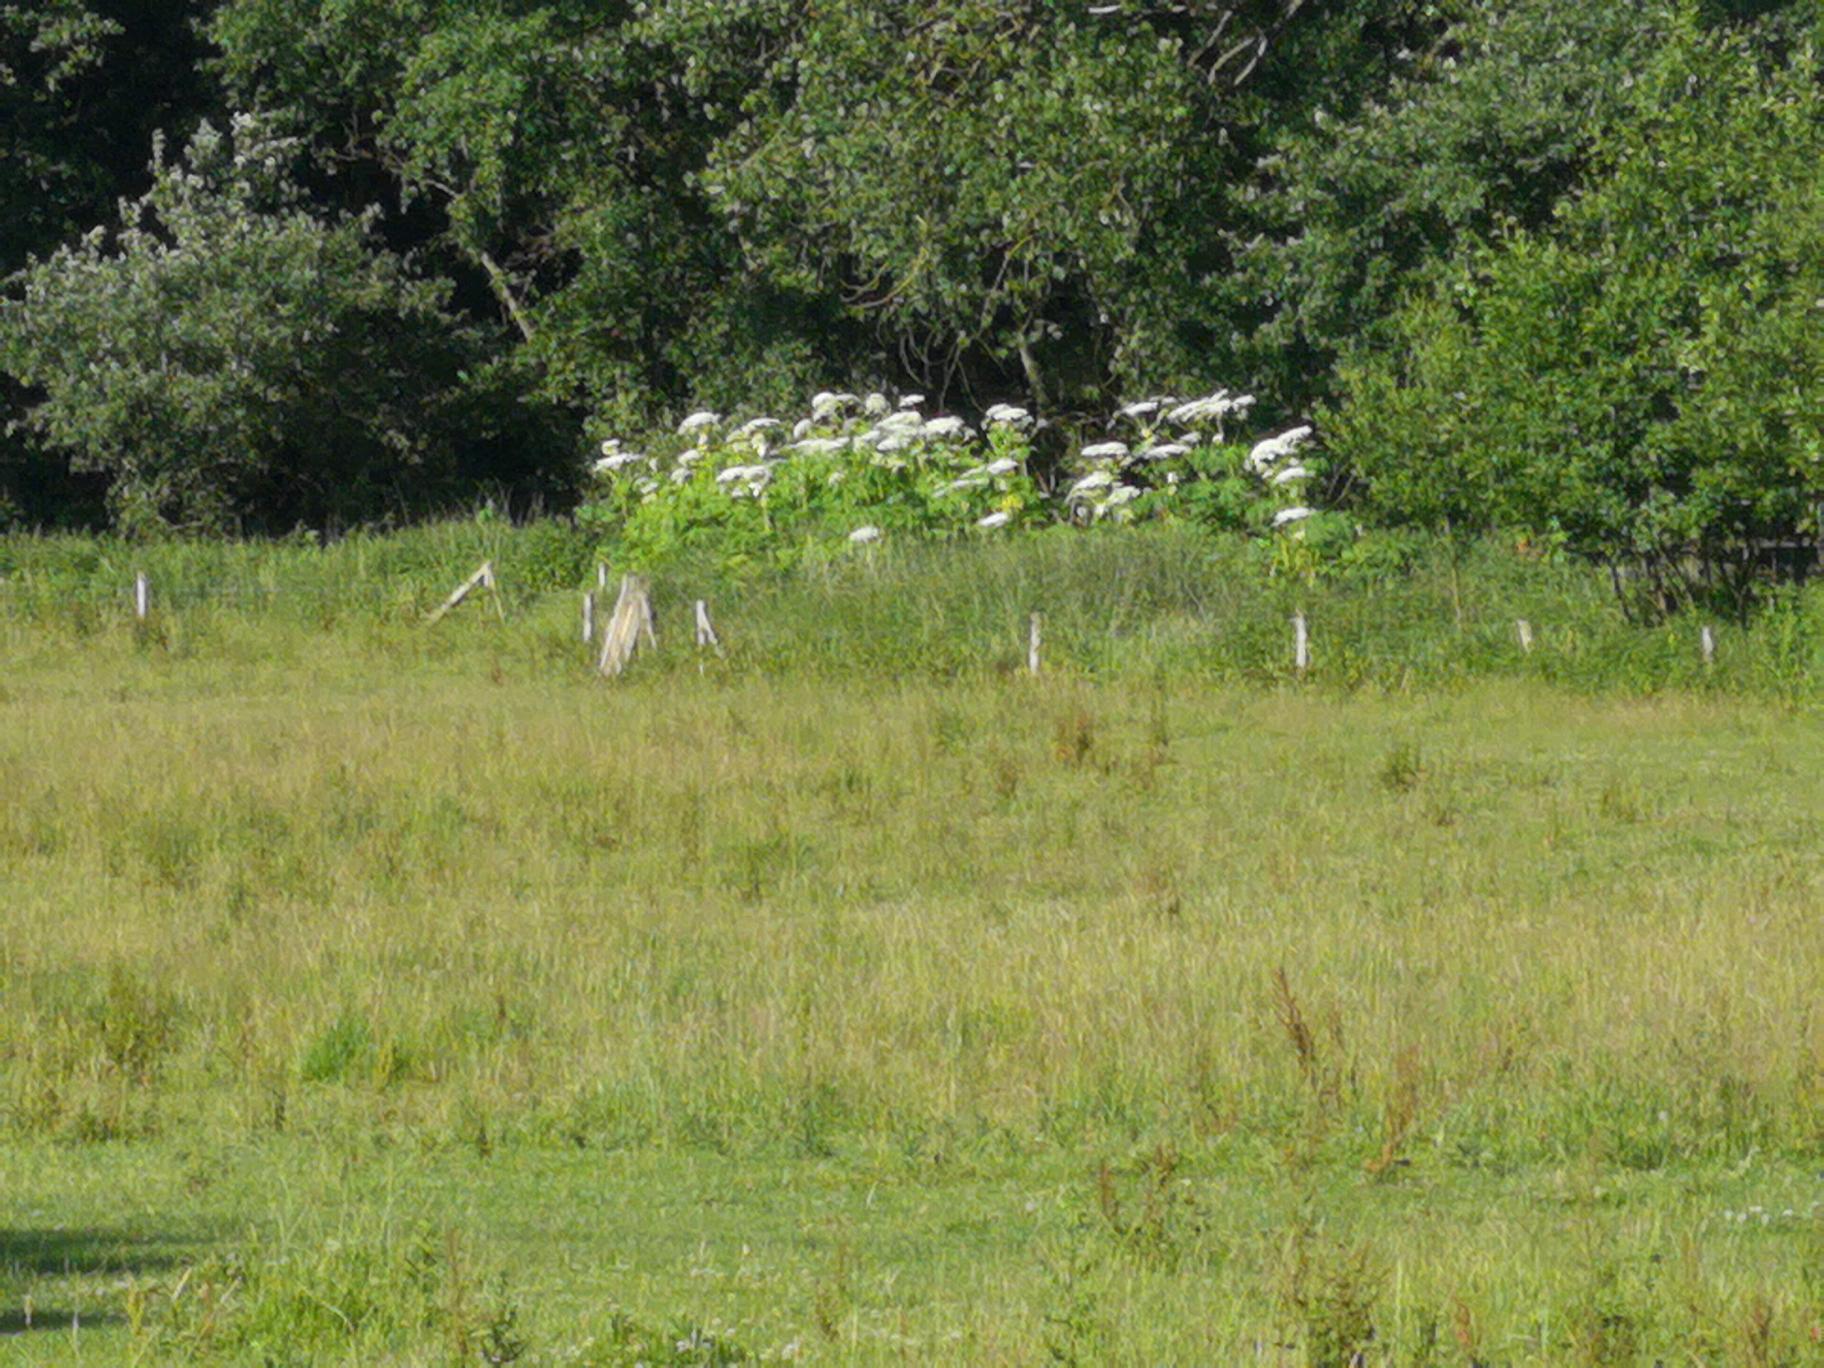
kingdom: Plantae
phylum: Tracheophyta
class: Magnoliopsida
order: Apiales
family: Apiaceae
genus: Heracleum
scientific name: Heracleum mantegazzianum
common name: Kæmpe-bjørneklo
